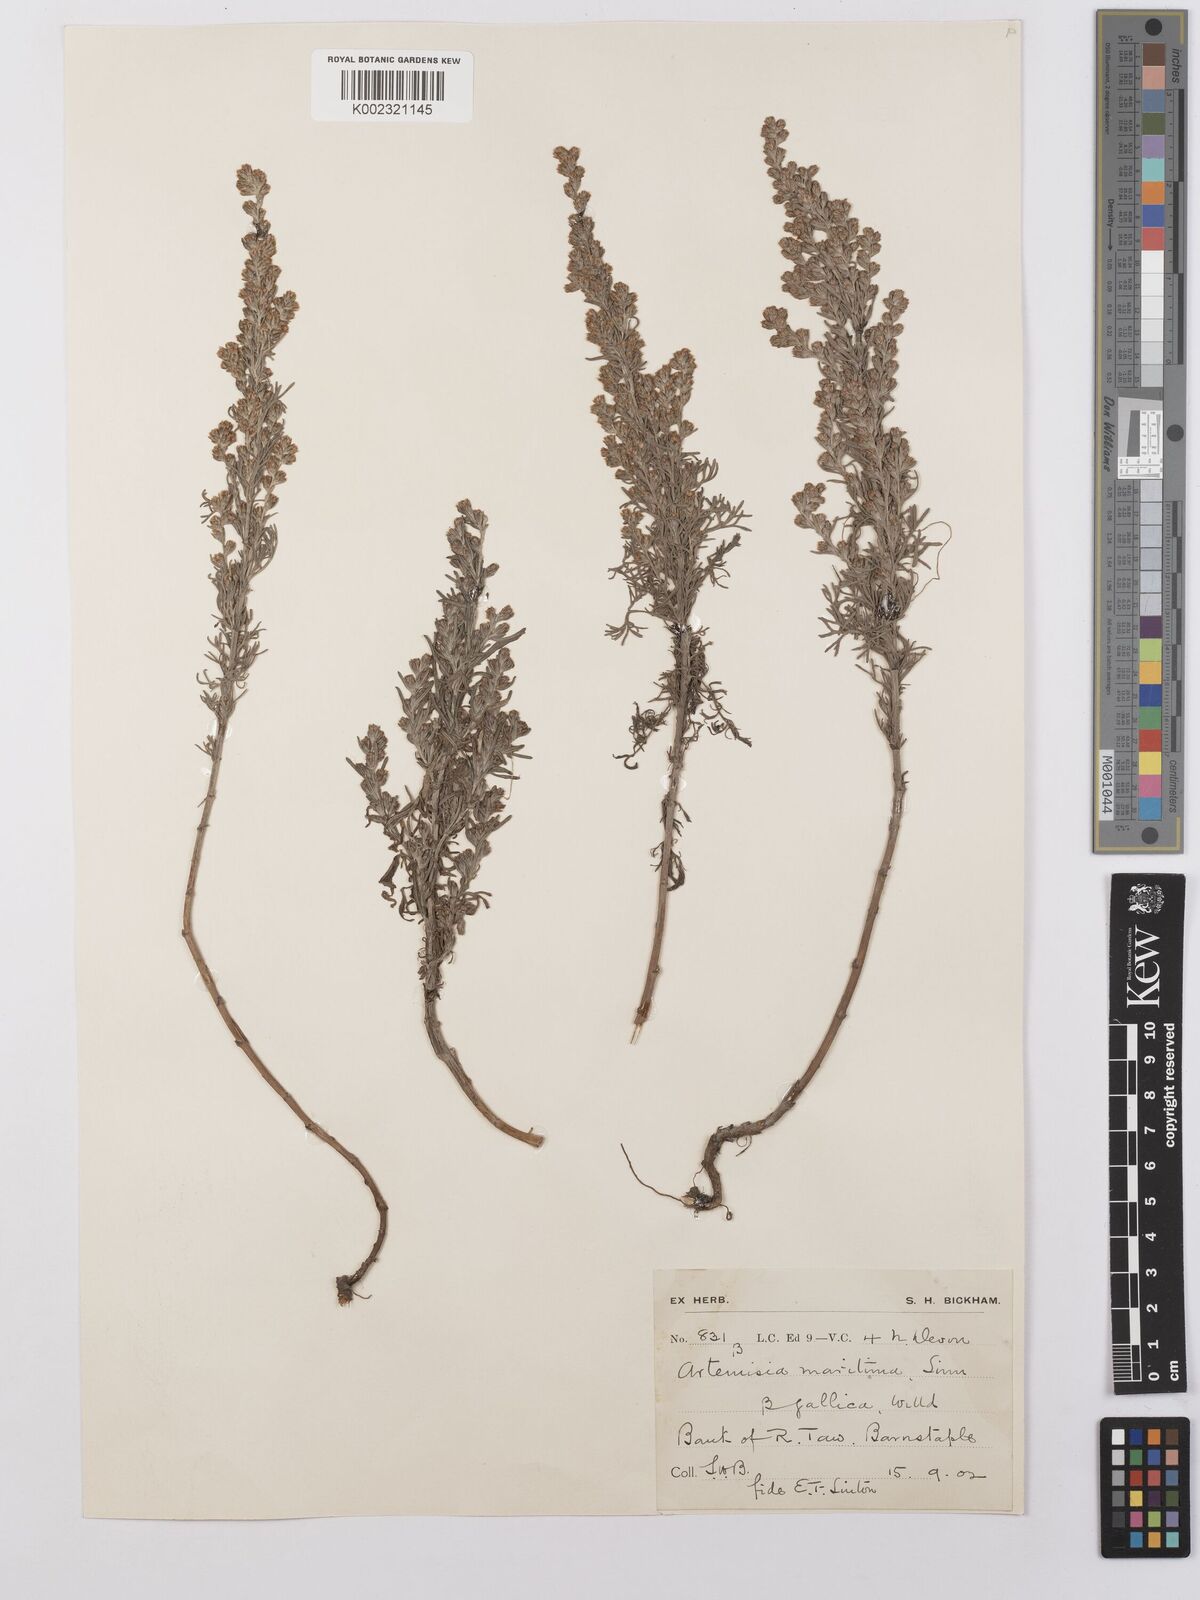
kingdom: Plantae
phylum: Tracheophyta
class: Magnoliopsida
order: Asterales
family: Asteraceae
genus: Artemisia
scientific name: Artemisia maritima
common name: Wormseed
